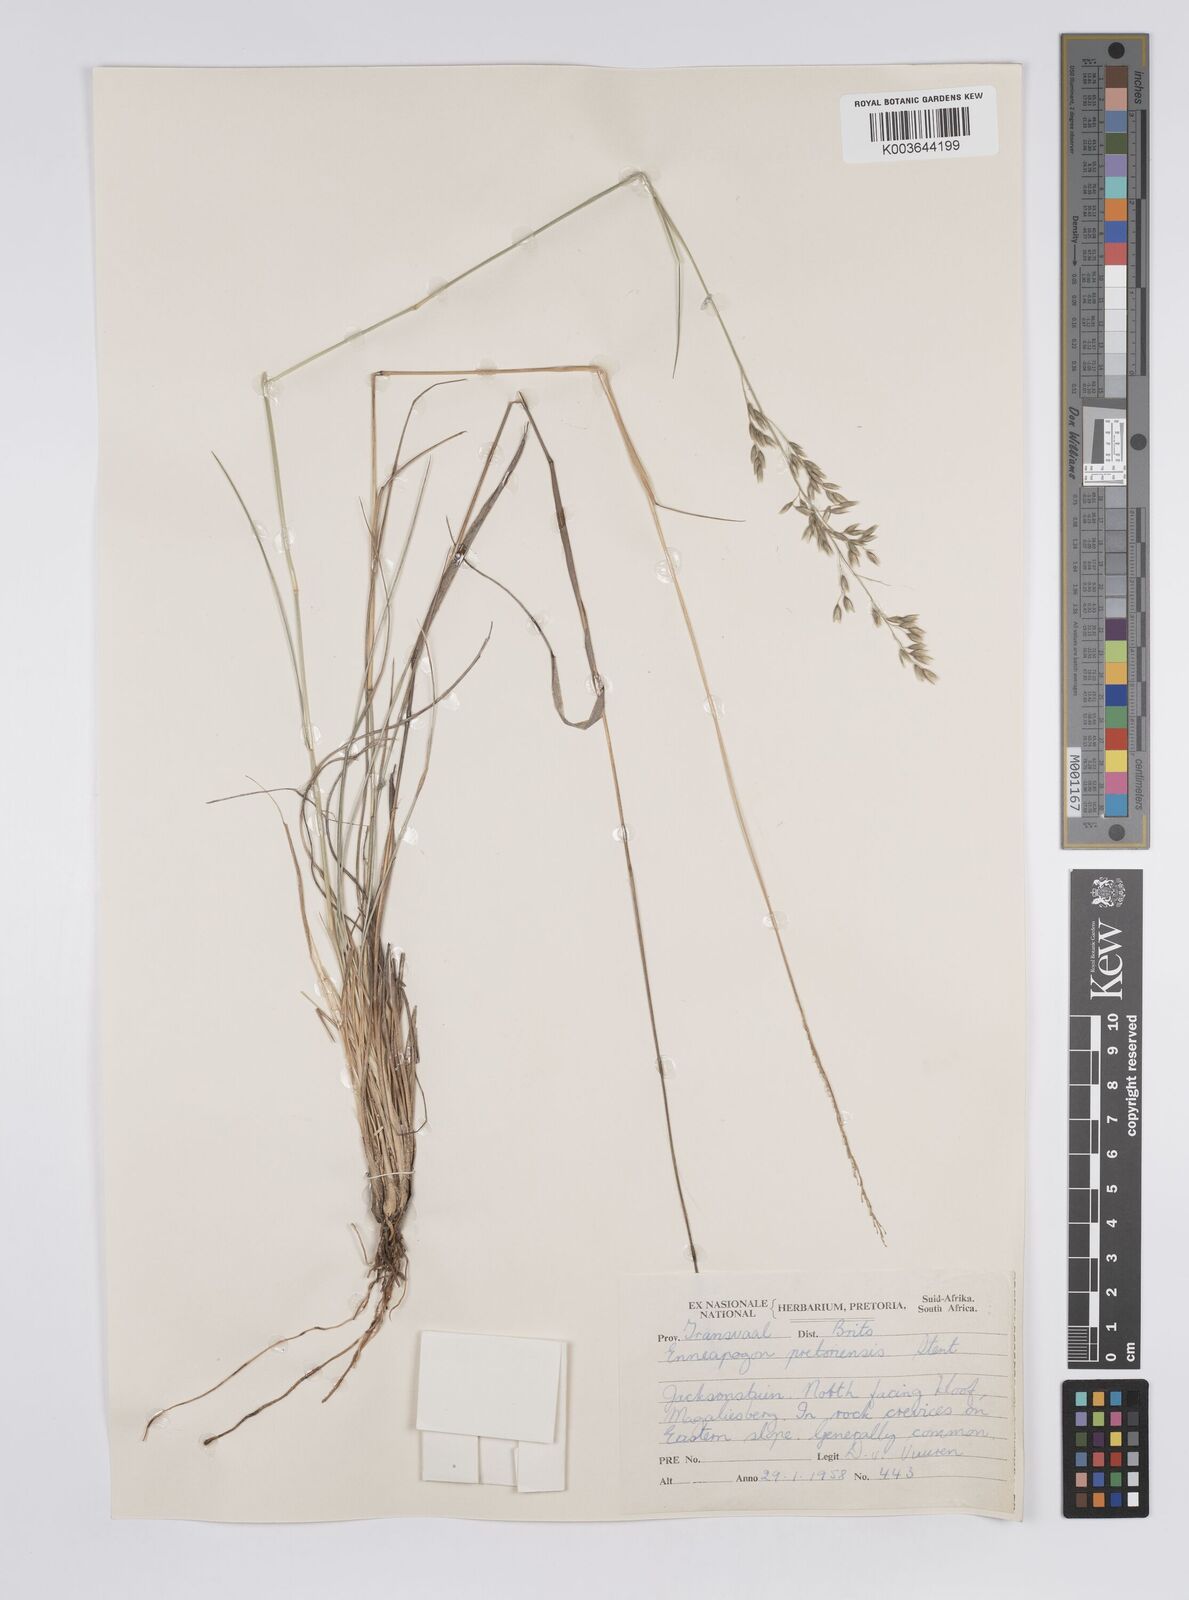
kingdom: Plantae
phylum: Tracheophyta
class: Liliopsida
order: Poales
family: Poaceae
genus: Enneapogon
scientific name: Enneapogon pretoriensis
